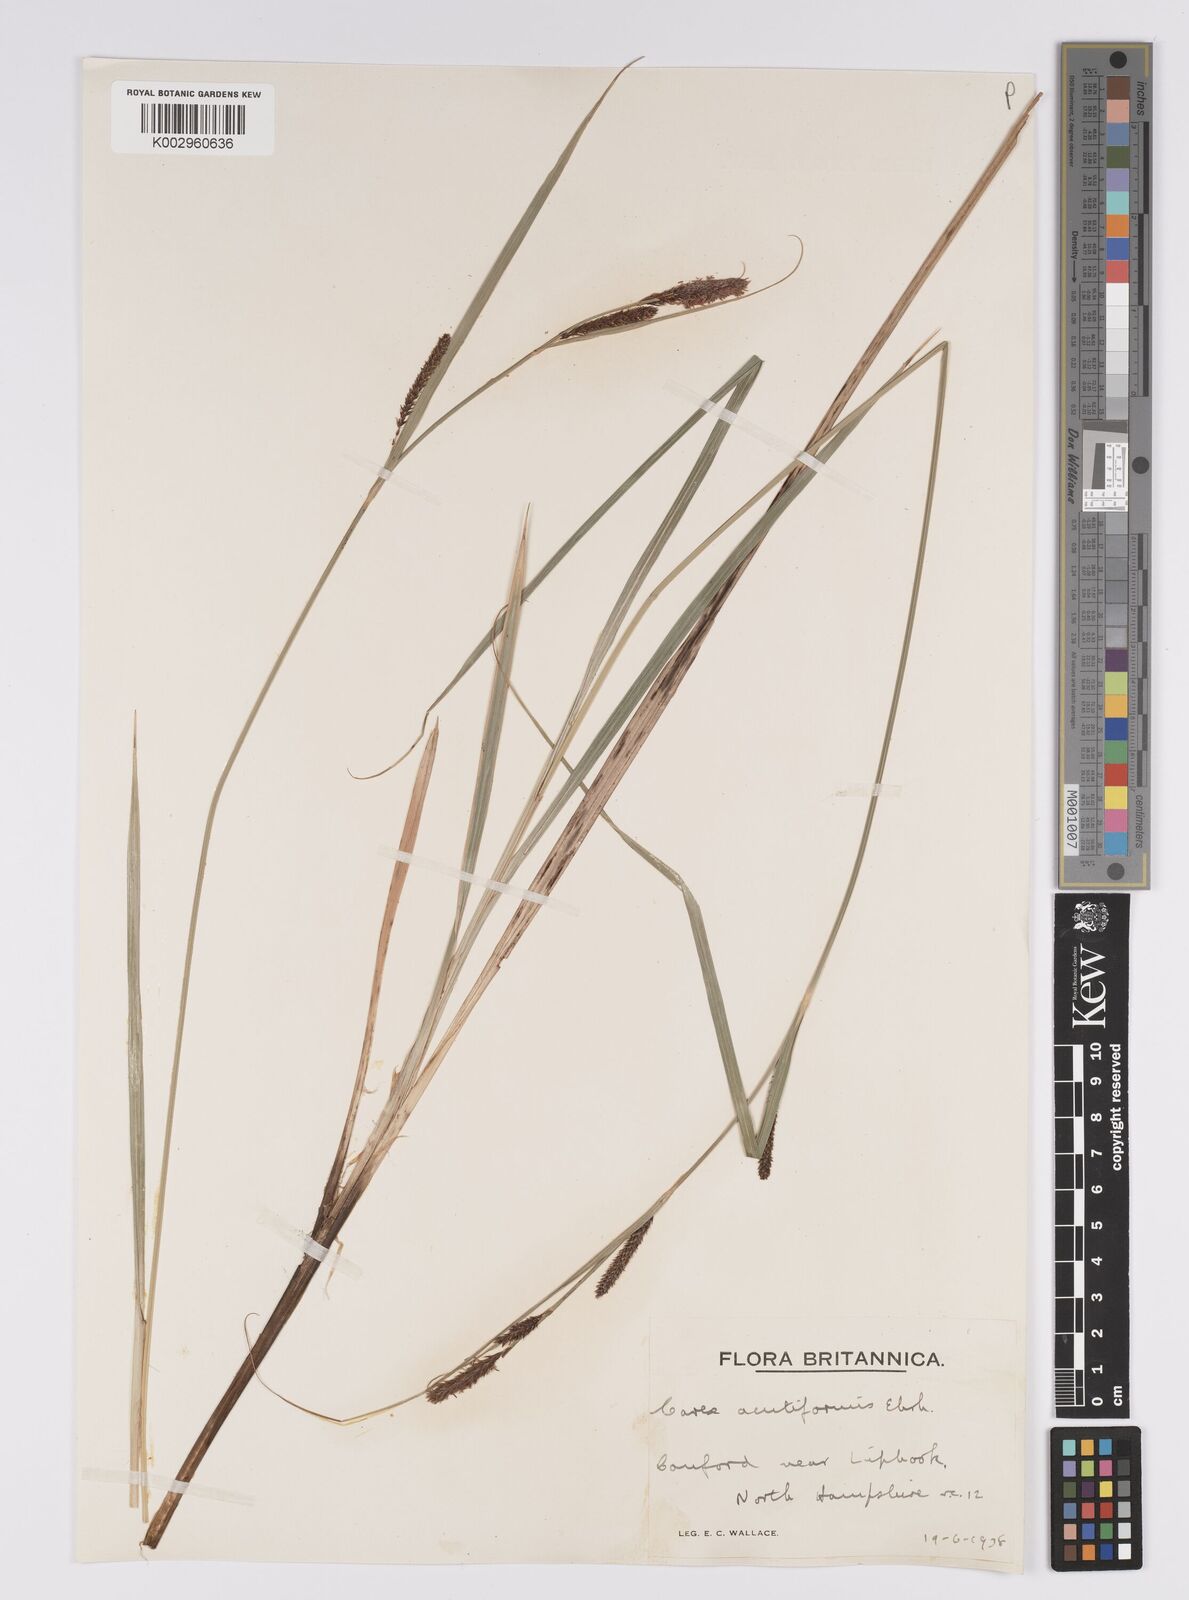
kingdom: Plantae
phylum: Tracheophyta
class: Liliopsida
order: Poales
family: Cyperaceae
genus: Carex
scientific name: Carex acutiformis
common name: Lesser pond-sedge
